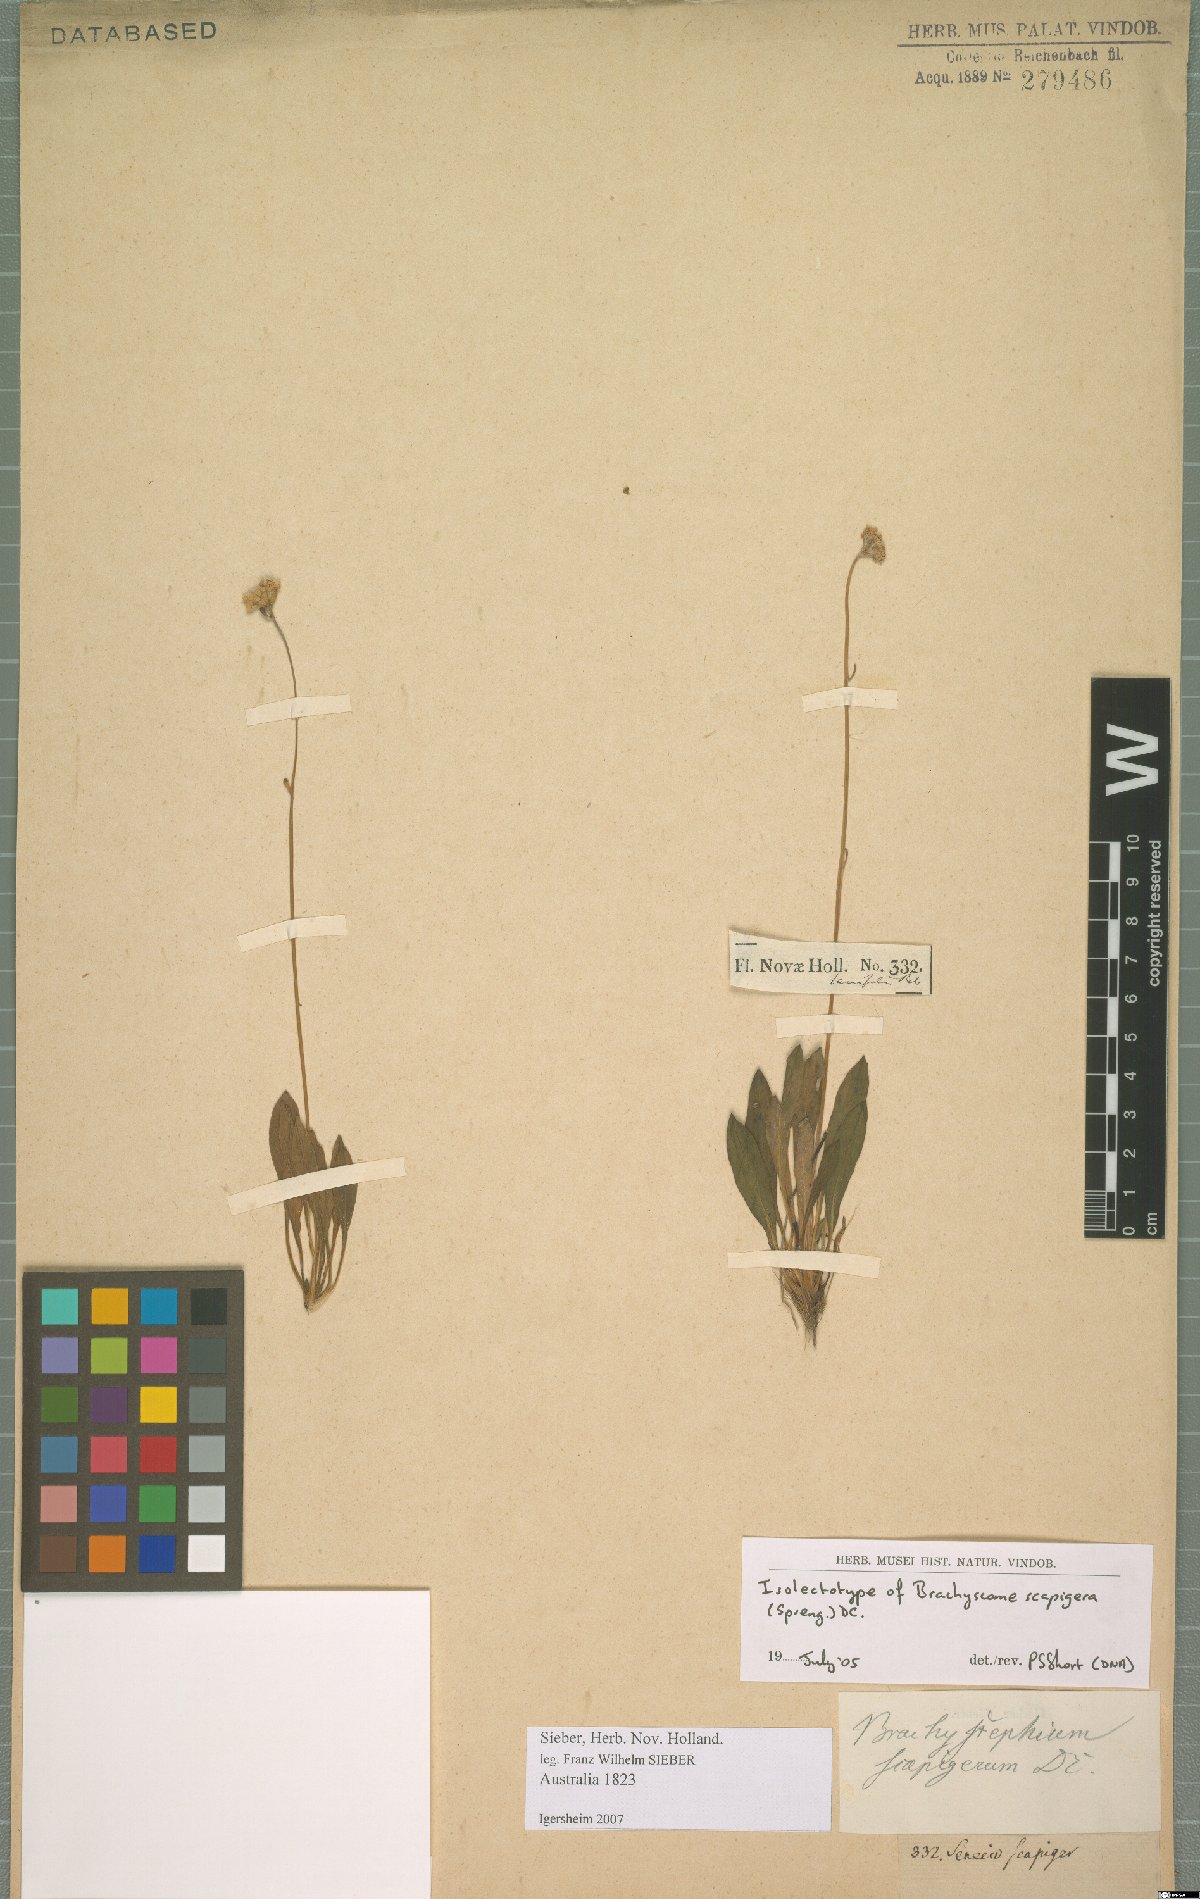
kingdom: Plantae
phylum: Tracheophyta
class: Magnoliopsida
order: Asterales
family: Asteraceae
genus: Brachyscome
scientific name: Brachyscome scapigera
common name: Tufted daisy
